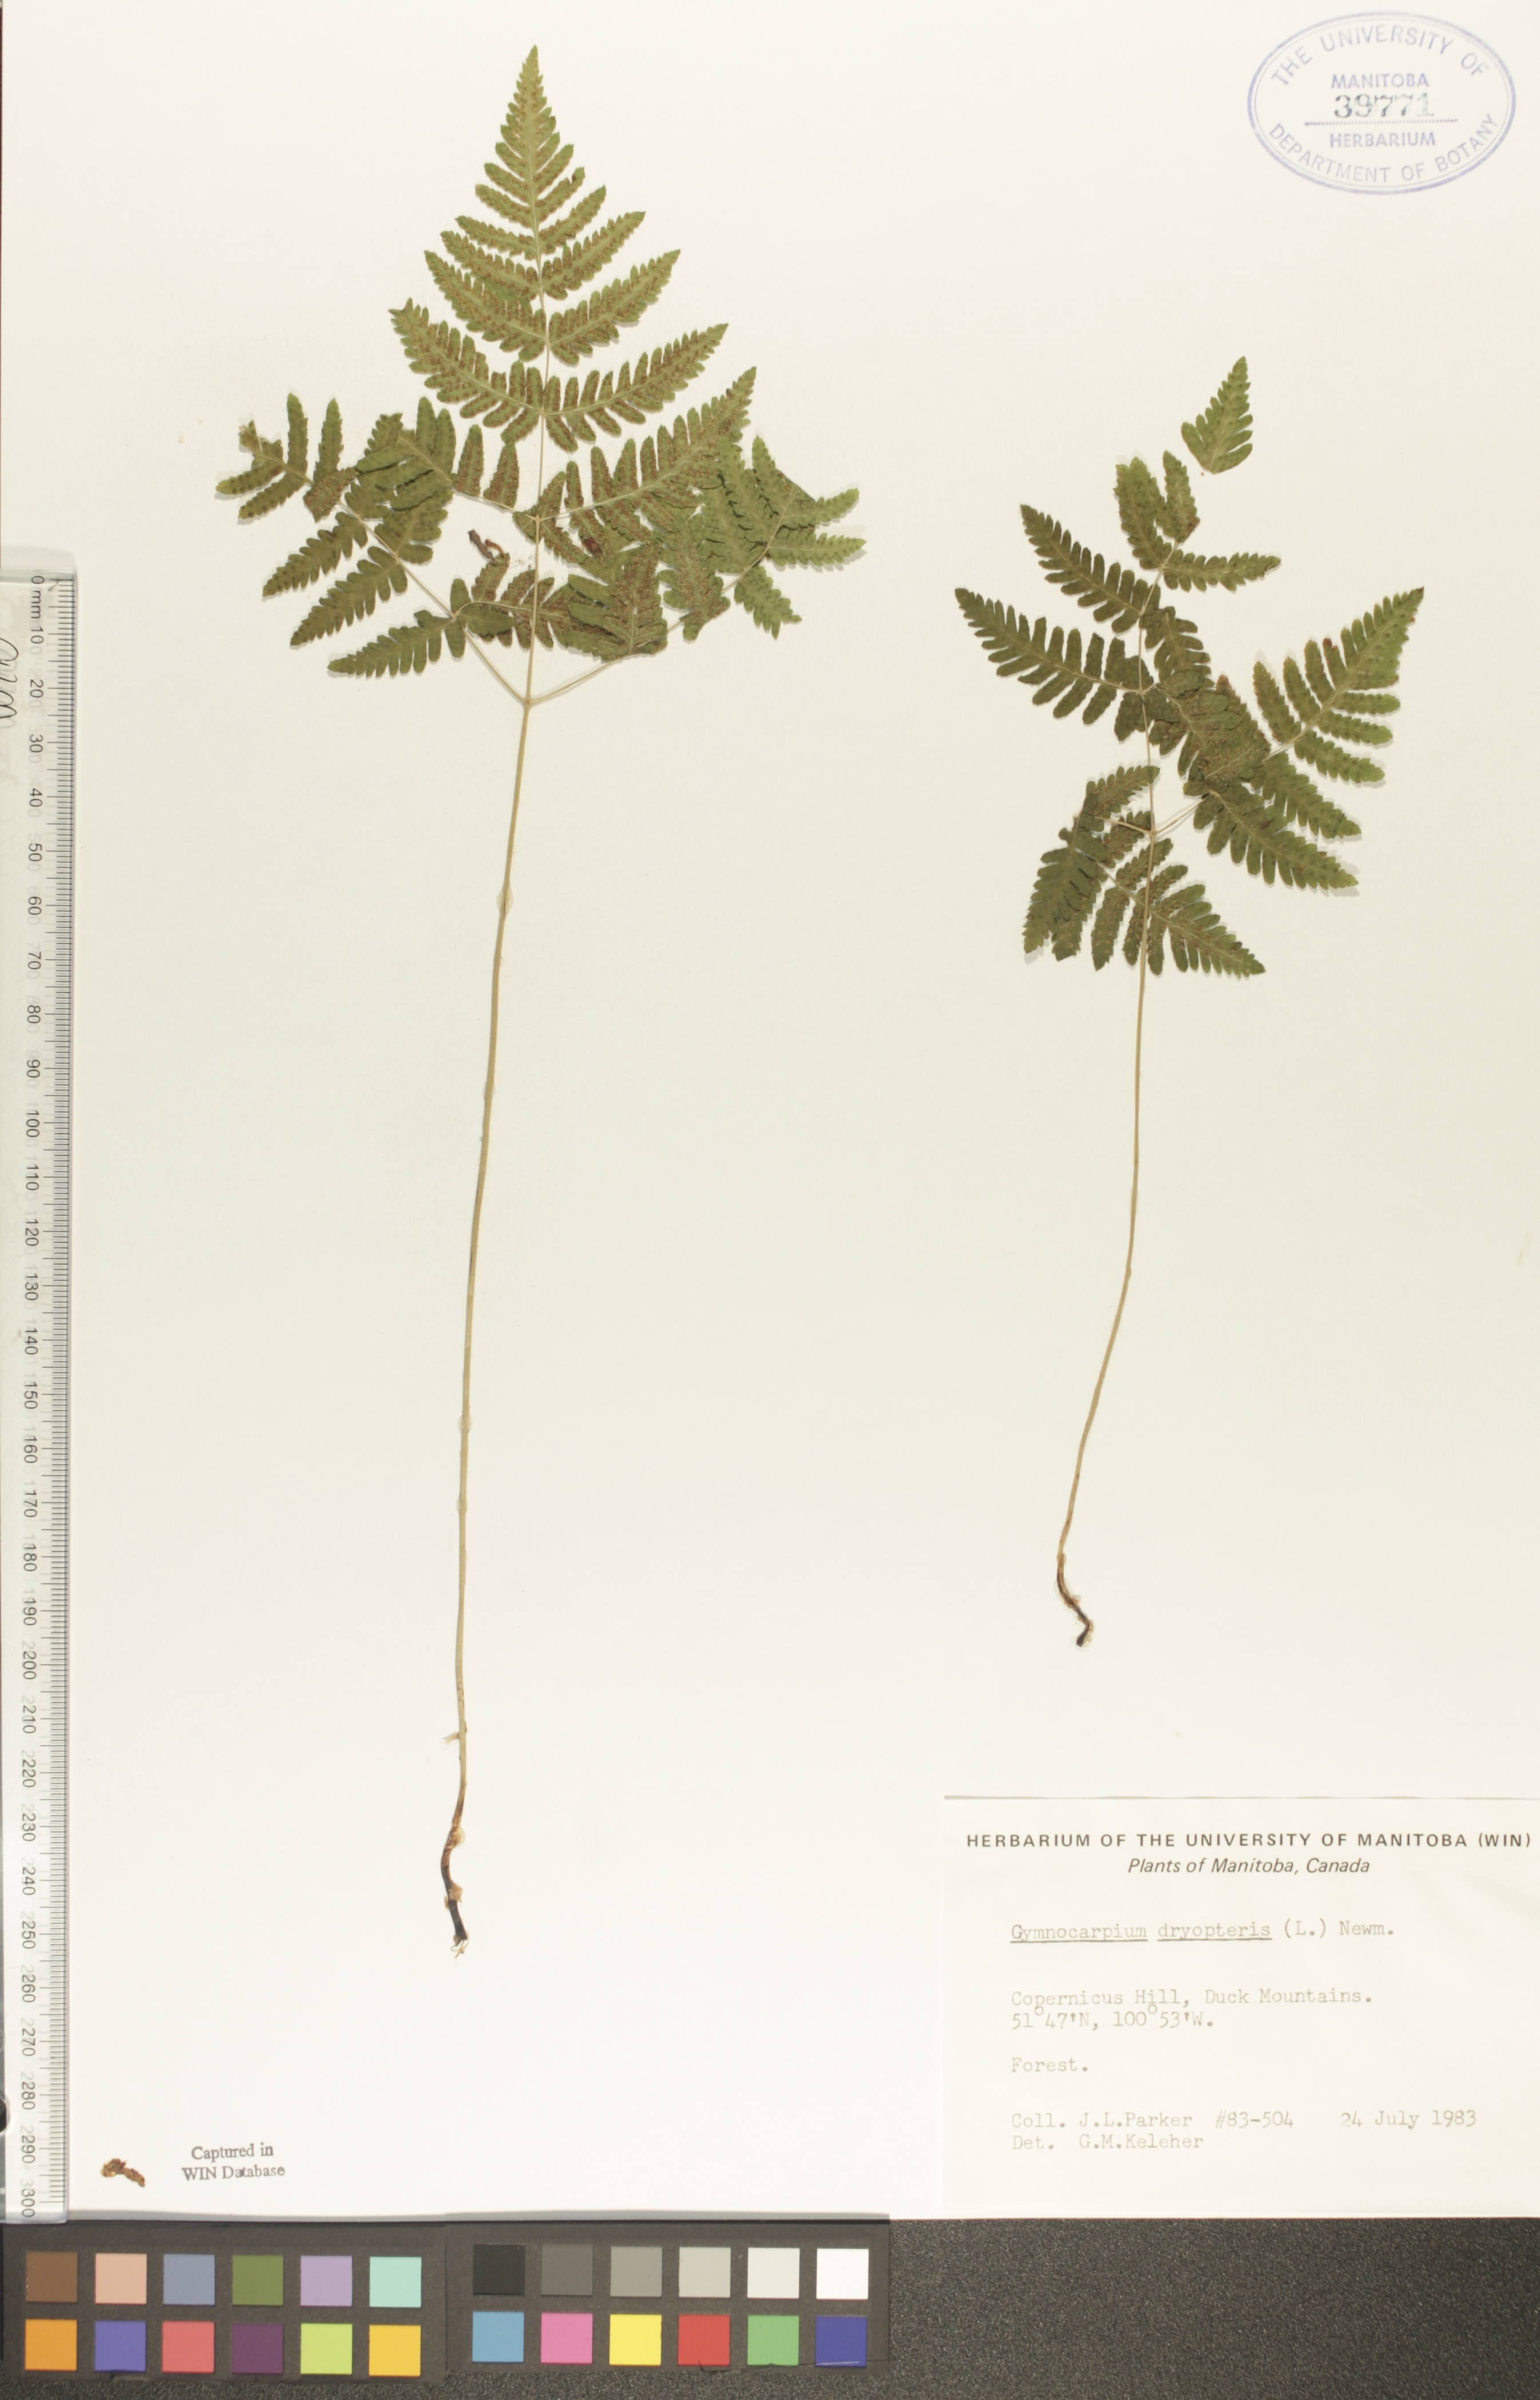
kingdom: Plantae
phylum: Tracheophyta
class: Polypodiopsida
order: Polypodiales
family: Cystopteridaceae
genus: Gymnocarpium
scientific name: Gymnocarpium dryopteris
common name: Oak fern
